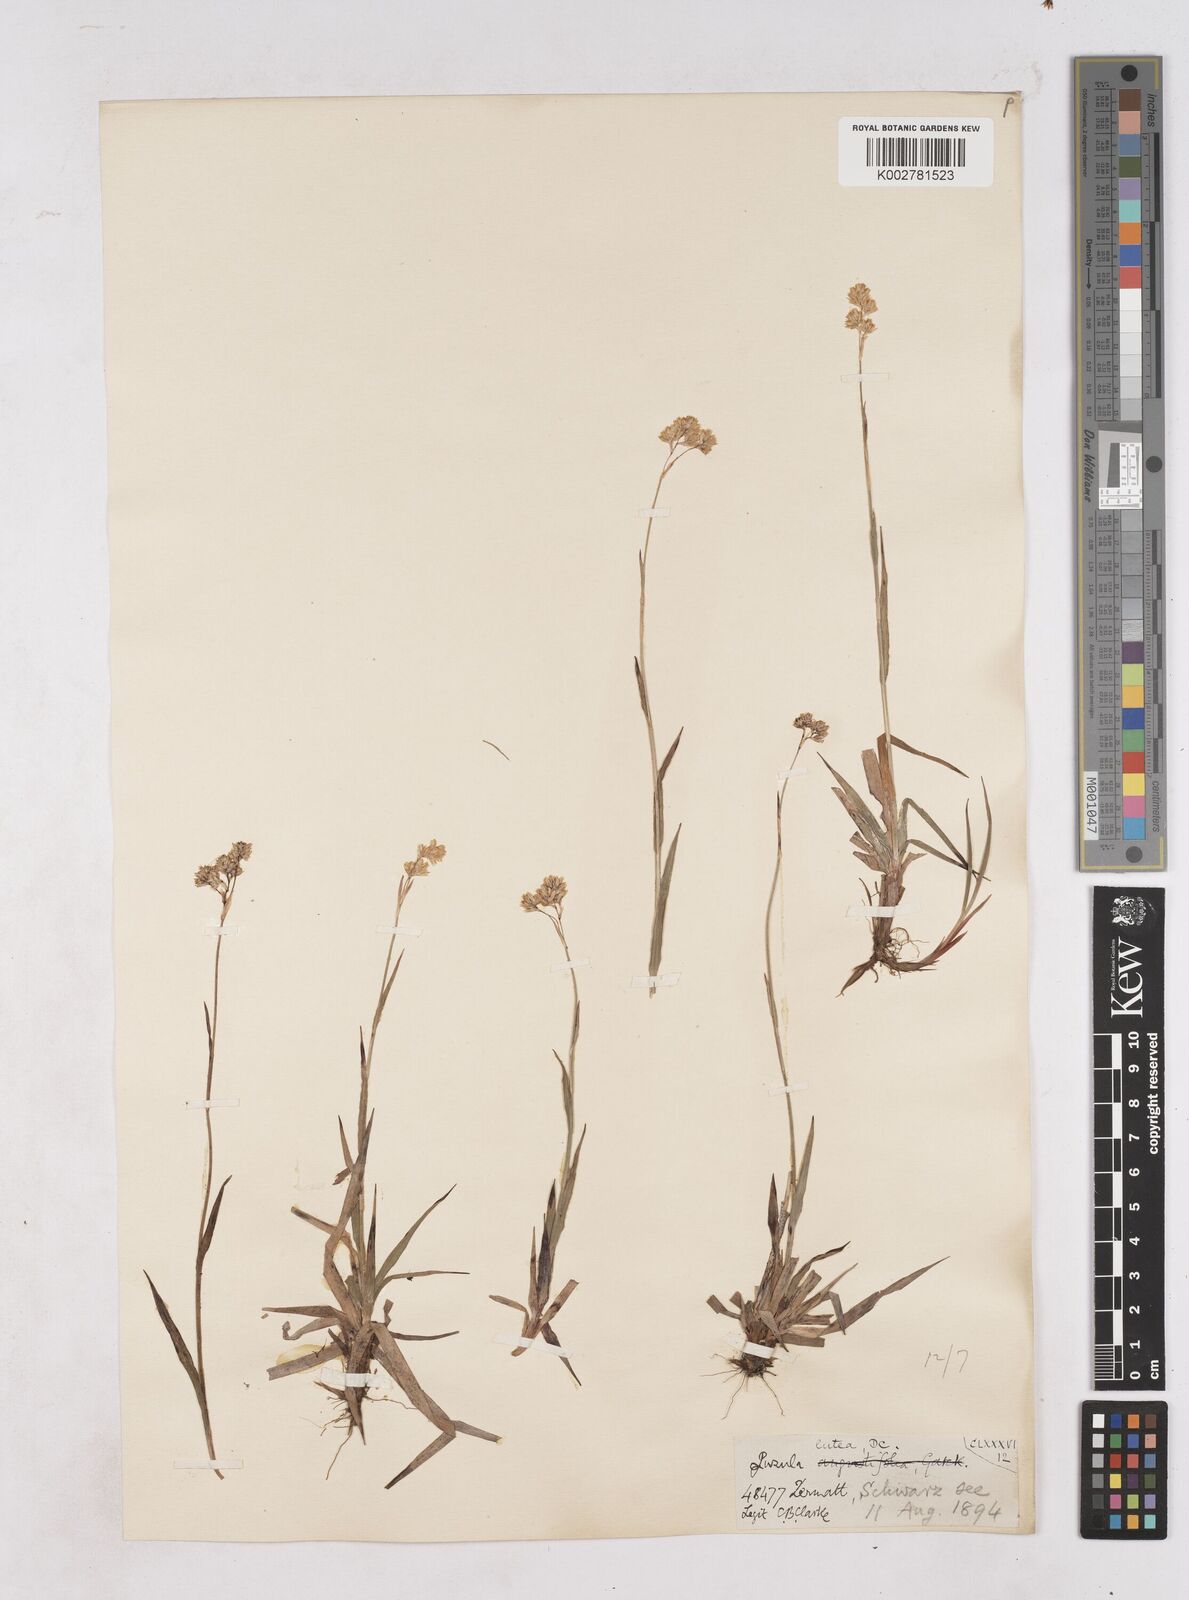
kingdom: Plantae
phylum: Tracheophyta
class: Liliopsida
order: Poales
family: Juncaceae
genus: Luzula
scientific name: Luzula lutea
